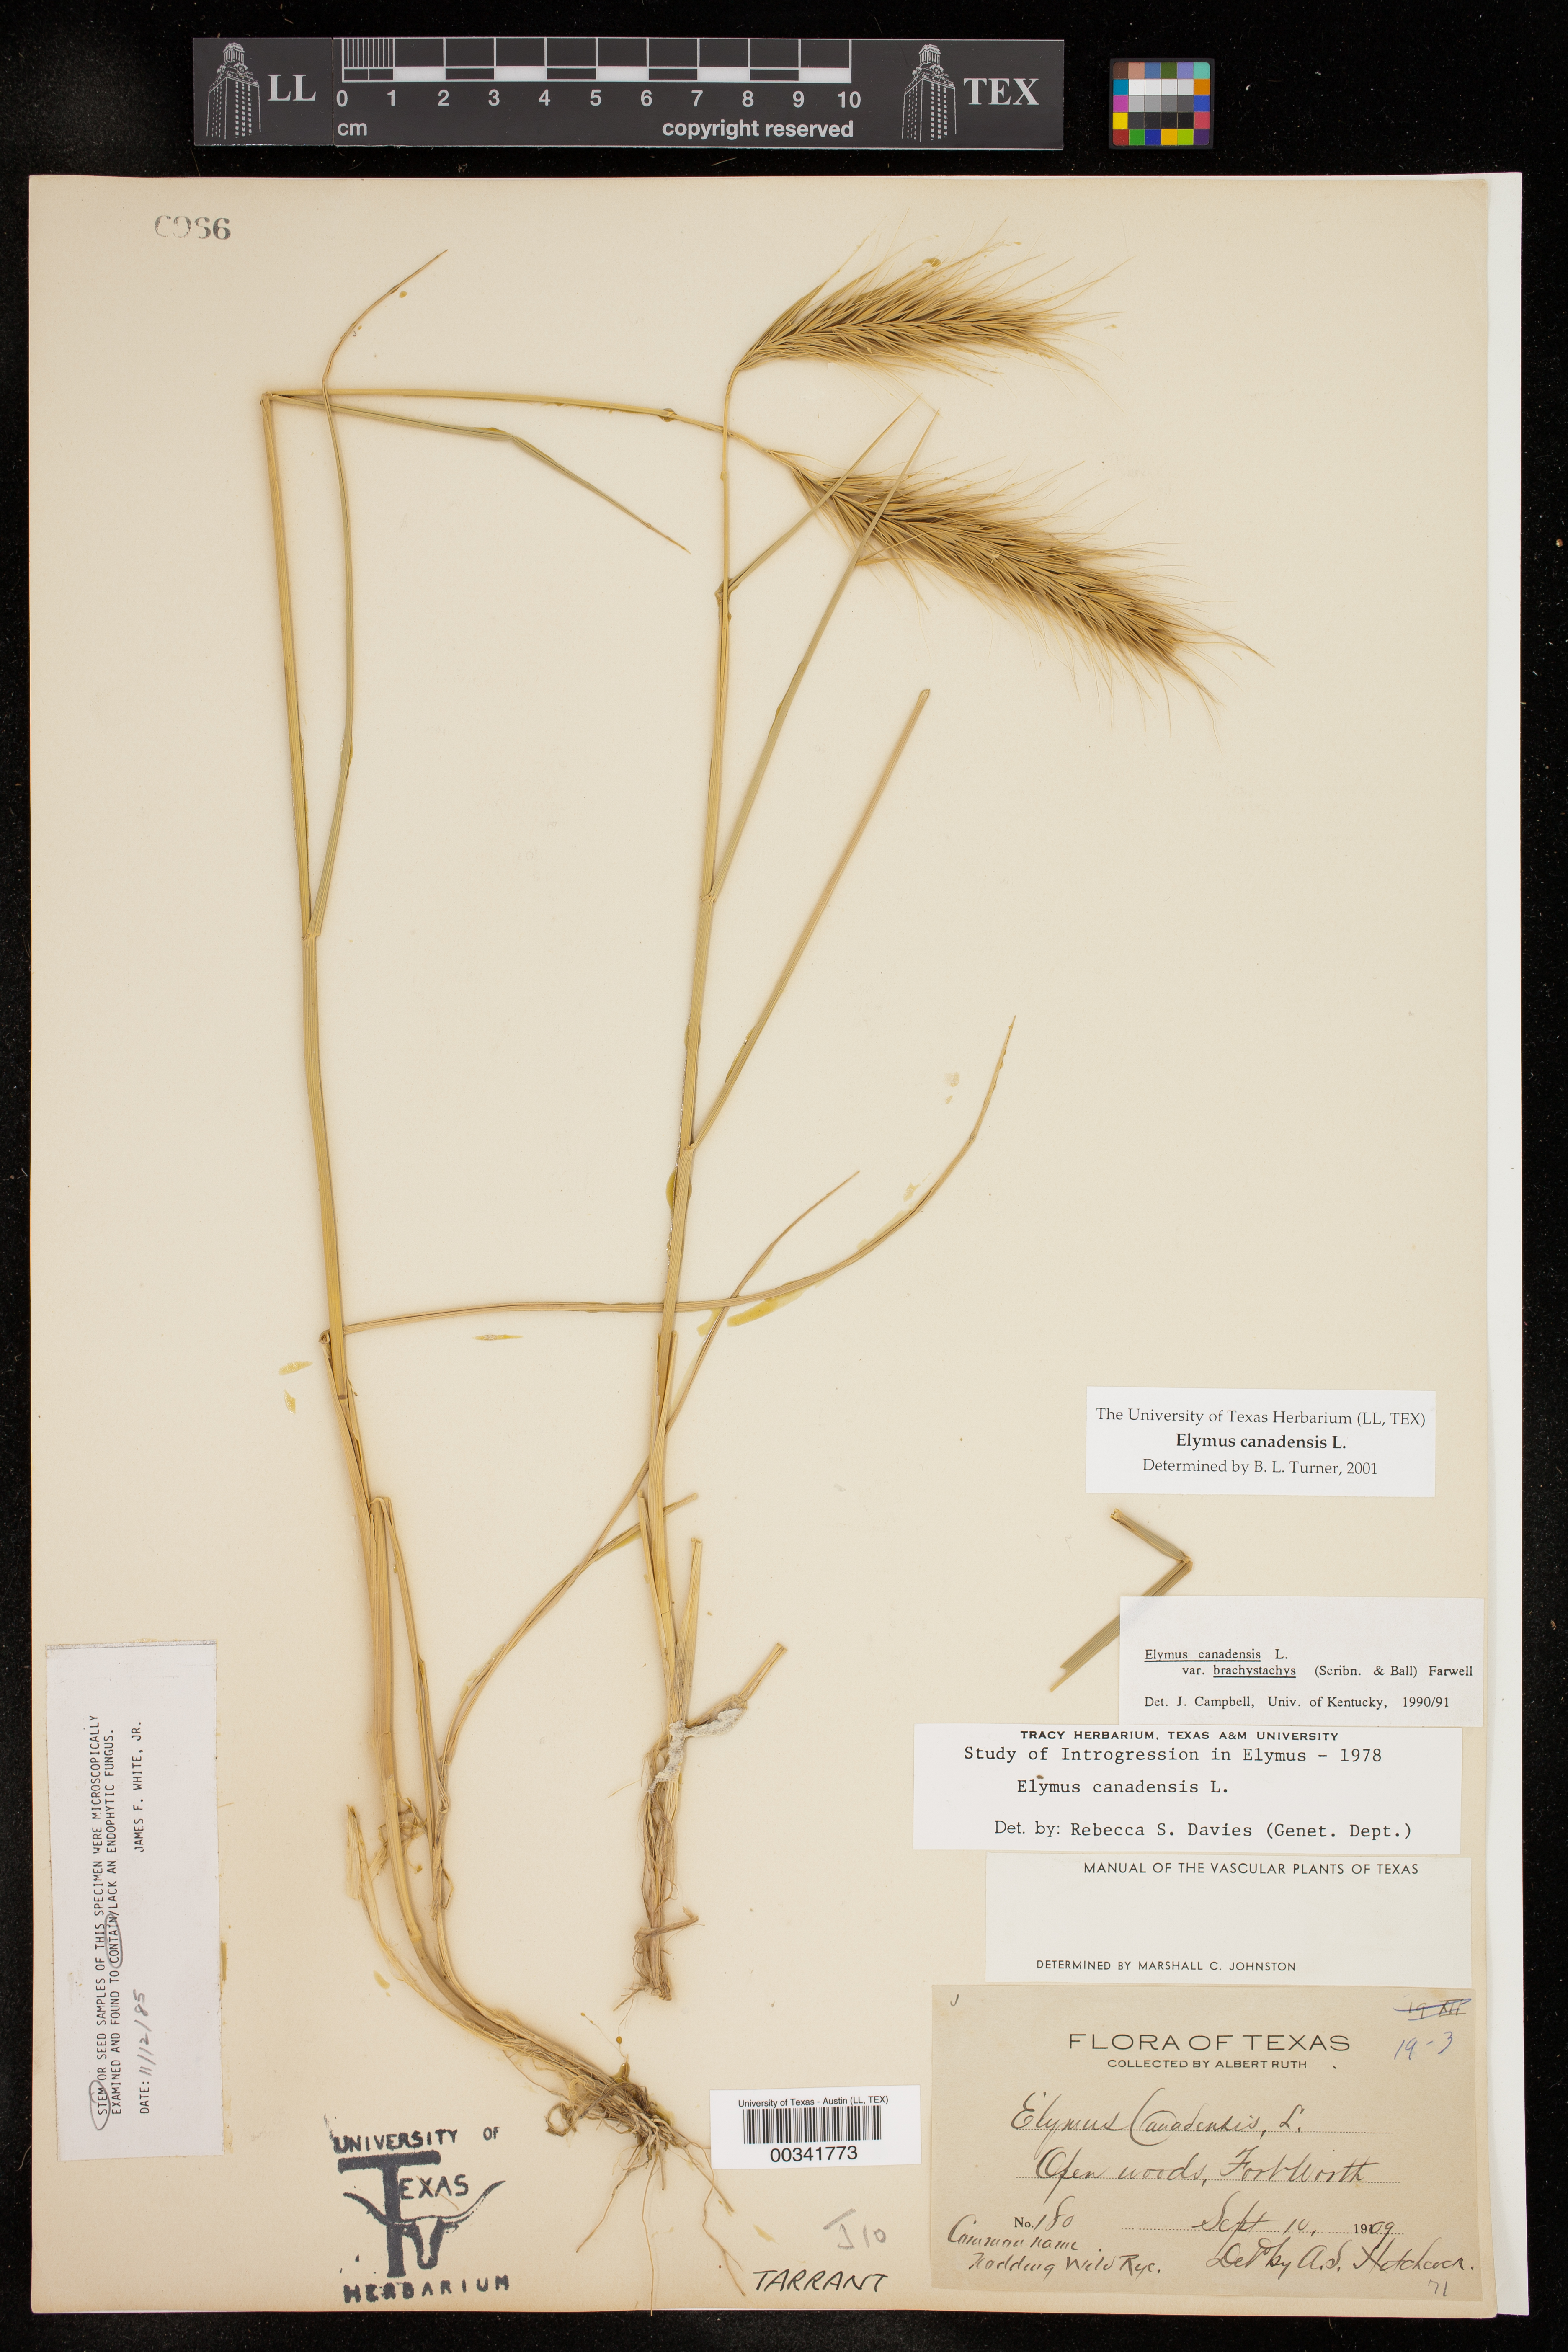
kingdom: Plantae
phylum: Tracheophyta
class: Liliopsida
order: Poales
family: Poaceae
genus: Elymus
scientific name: Elymus canadensis
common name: Canada wild rye
